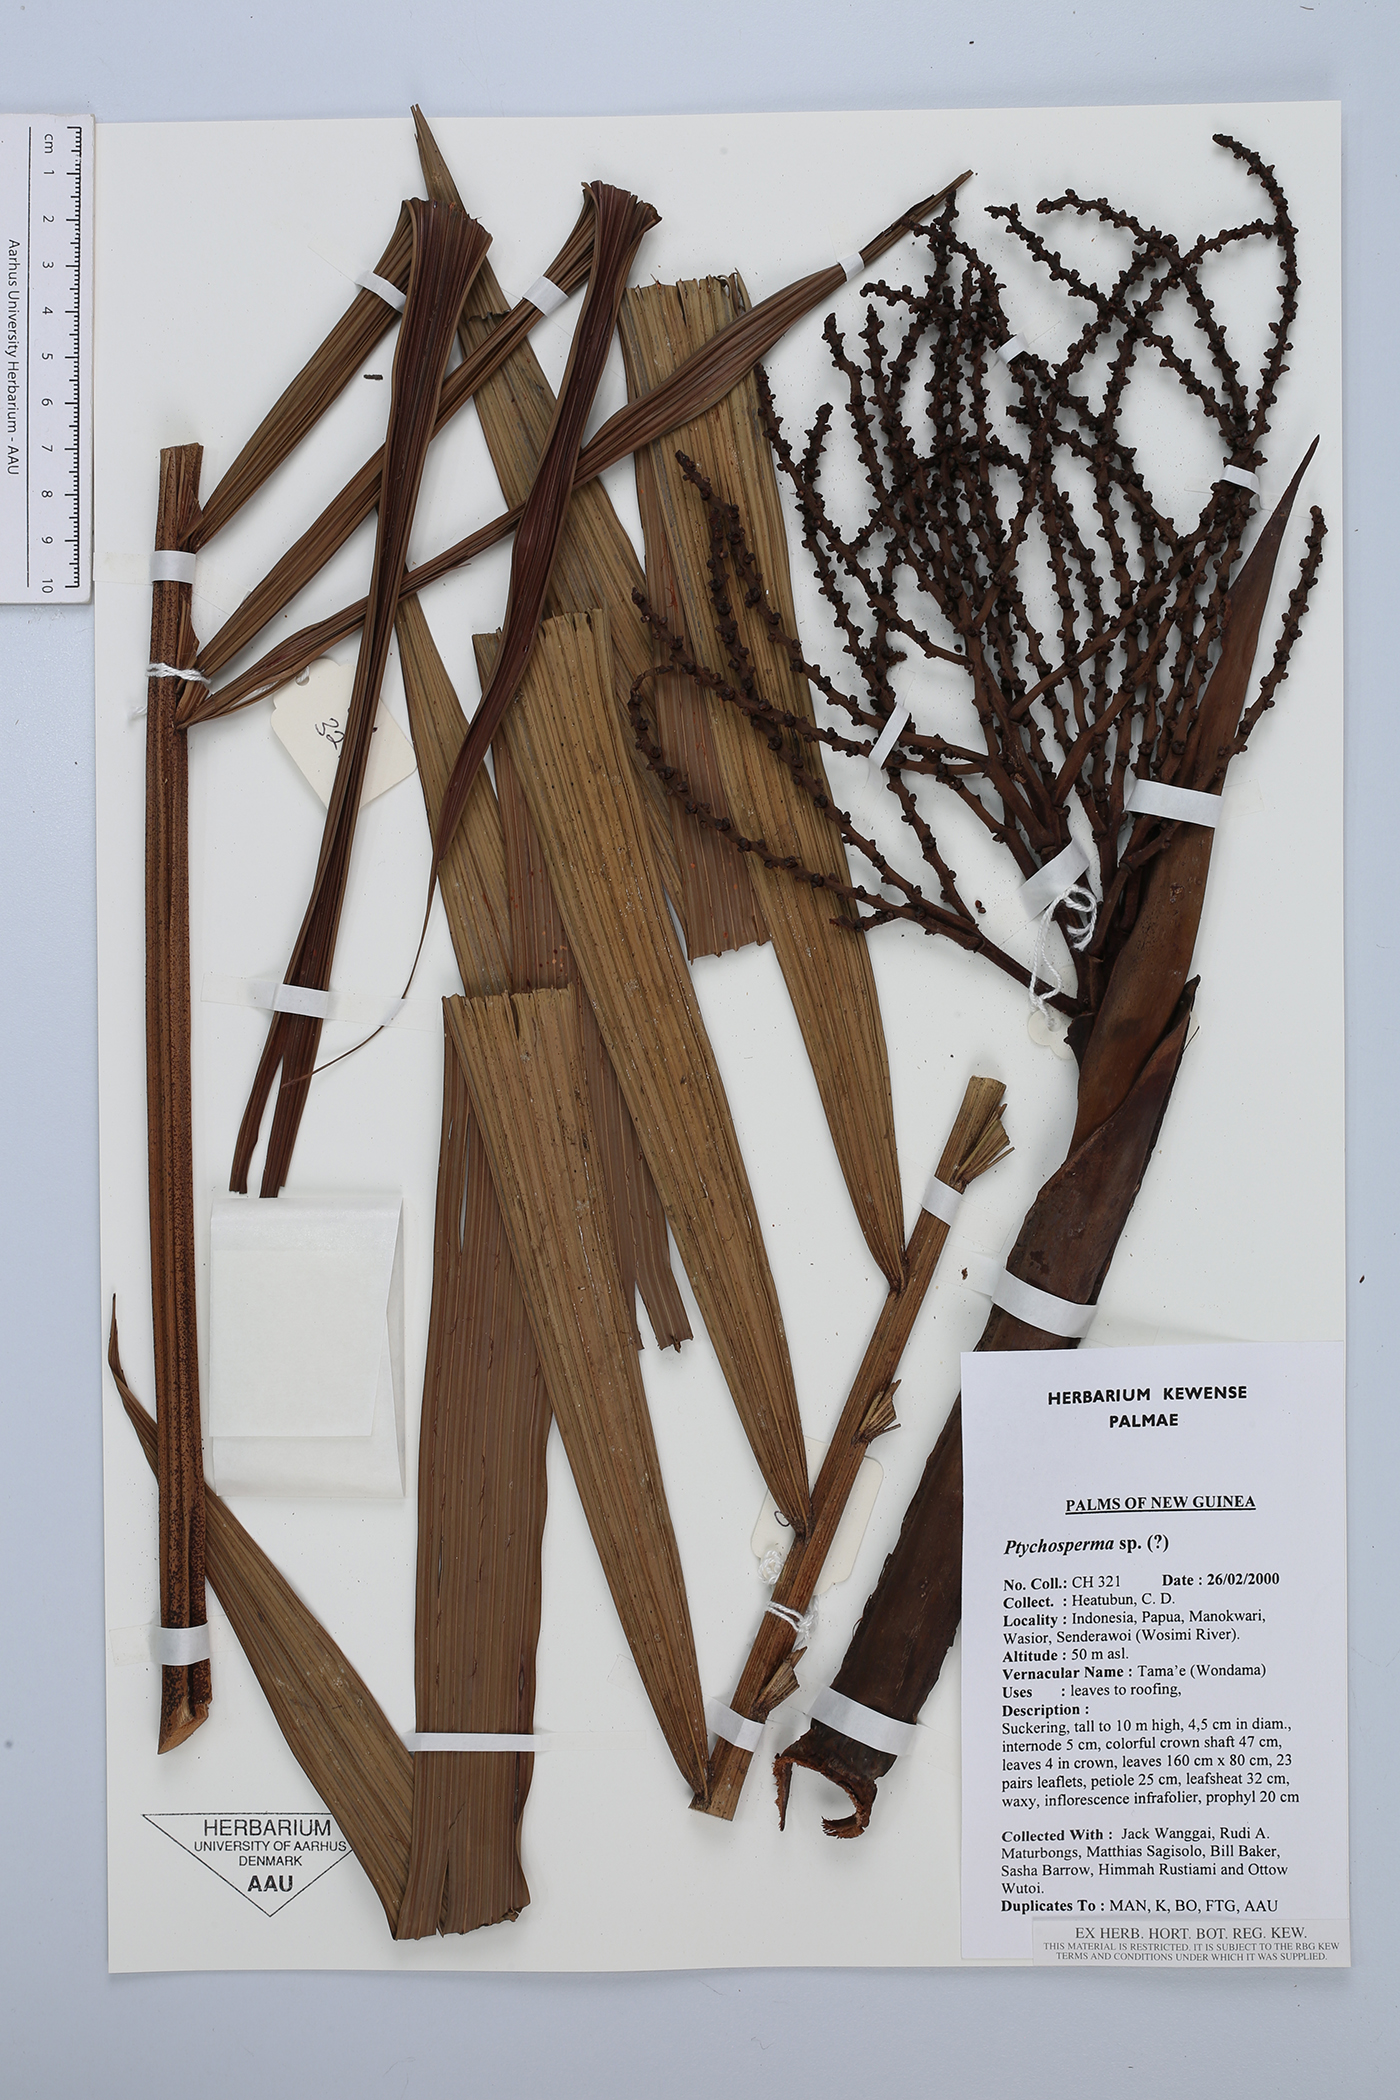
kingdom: Plantae
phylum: Tracheophyta
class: Liliopsida
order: Arecales
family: Arecaceae
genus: Ptychosperma
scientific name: Ptychosperma
